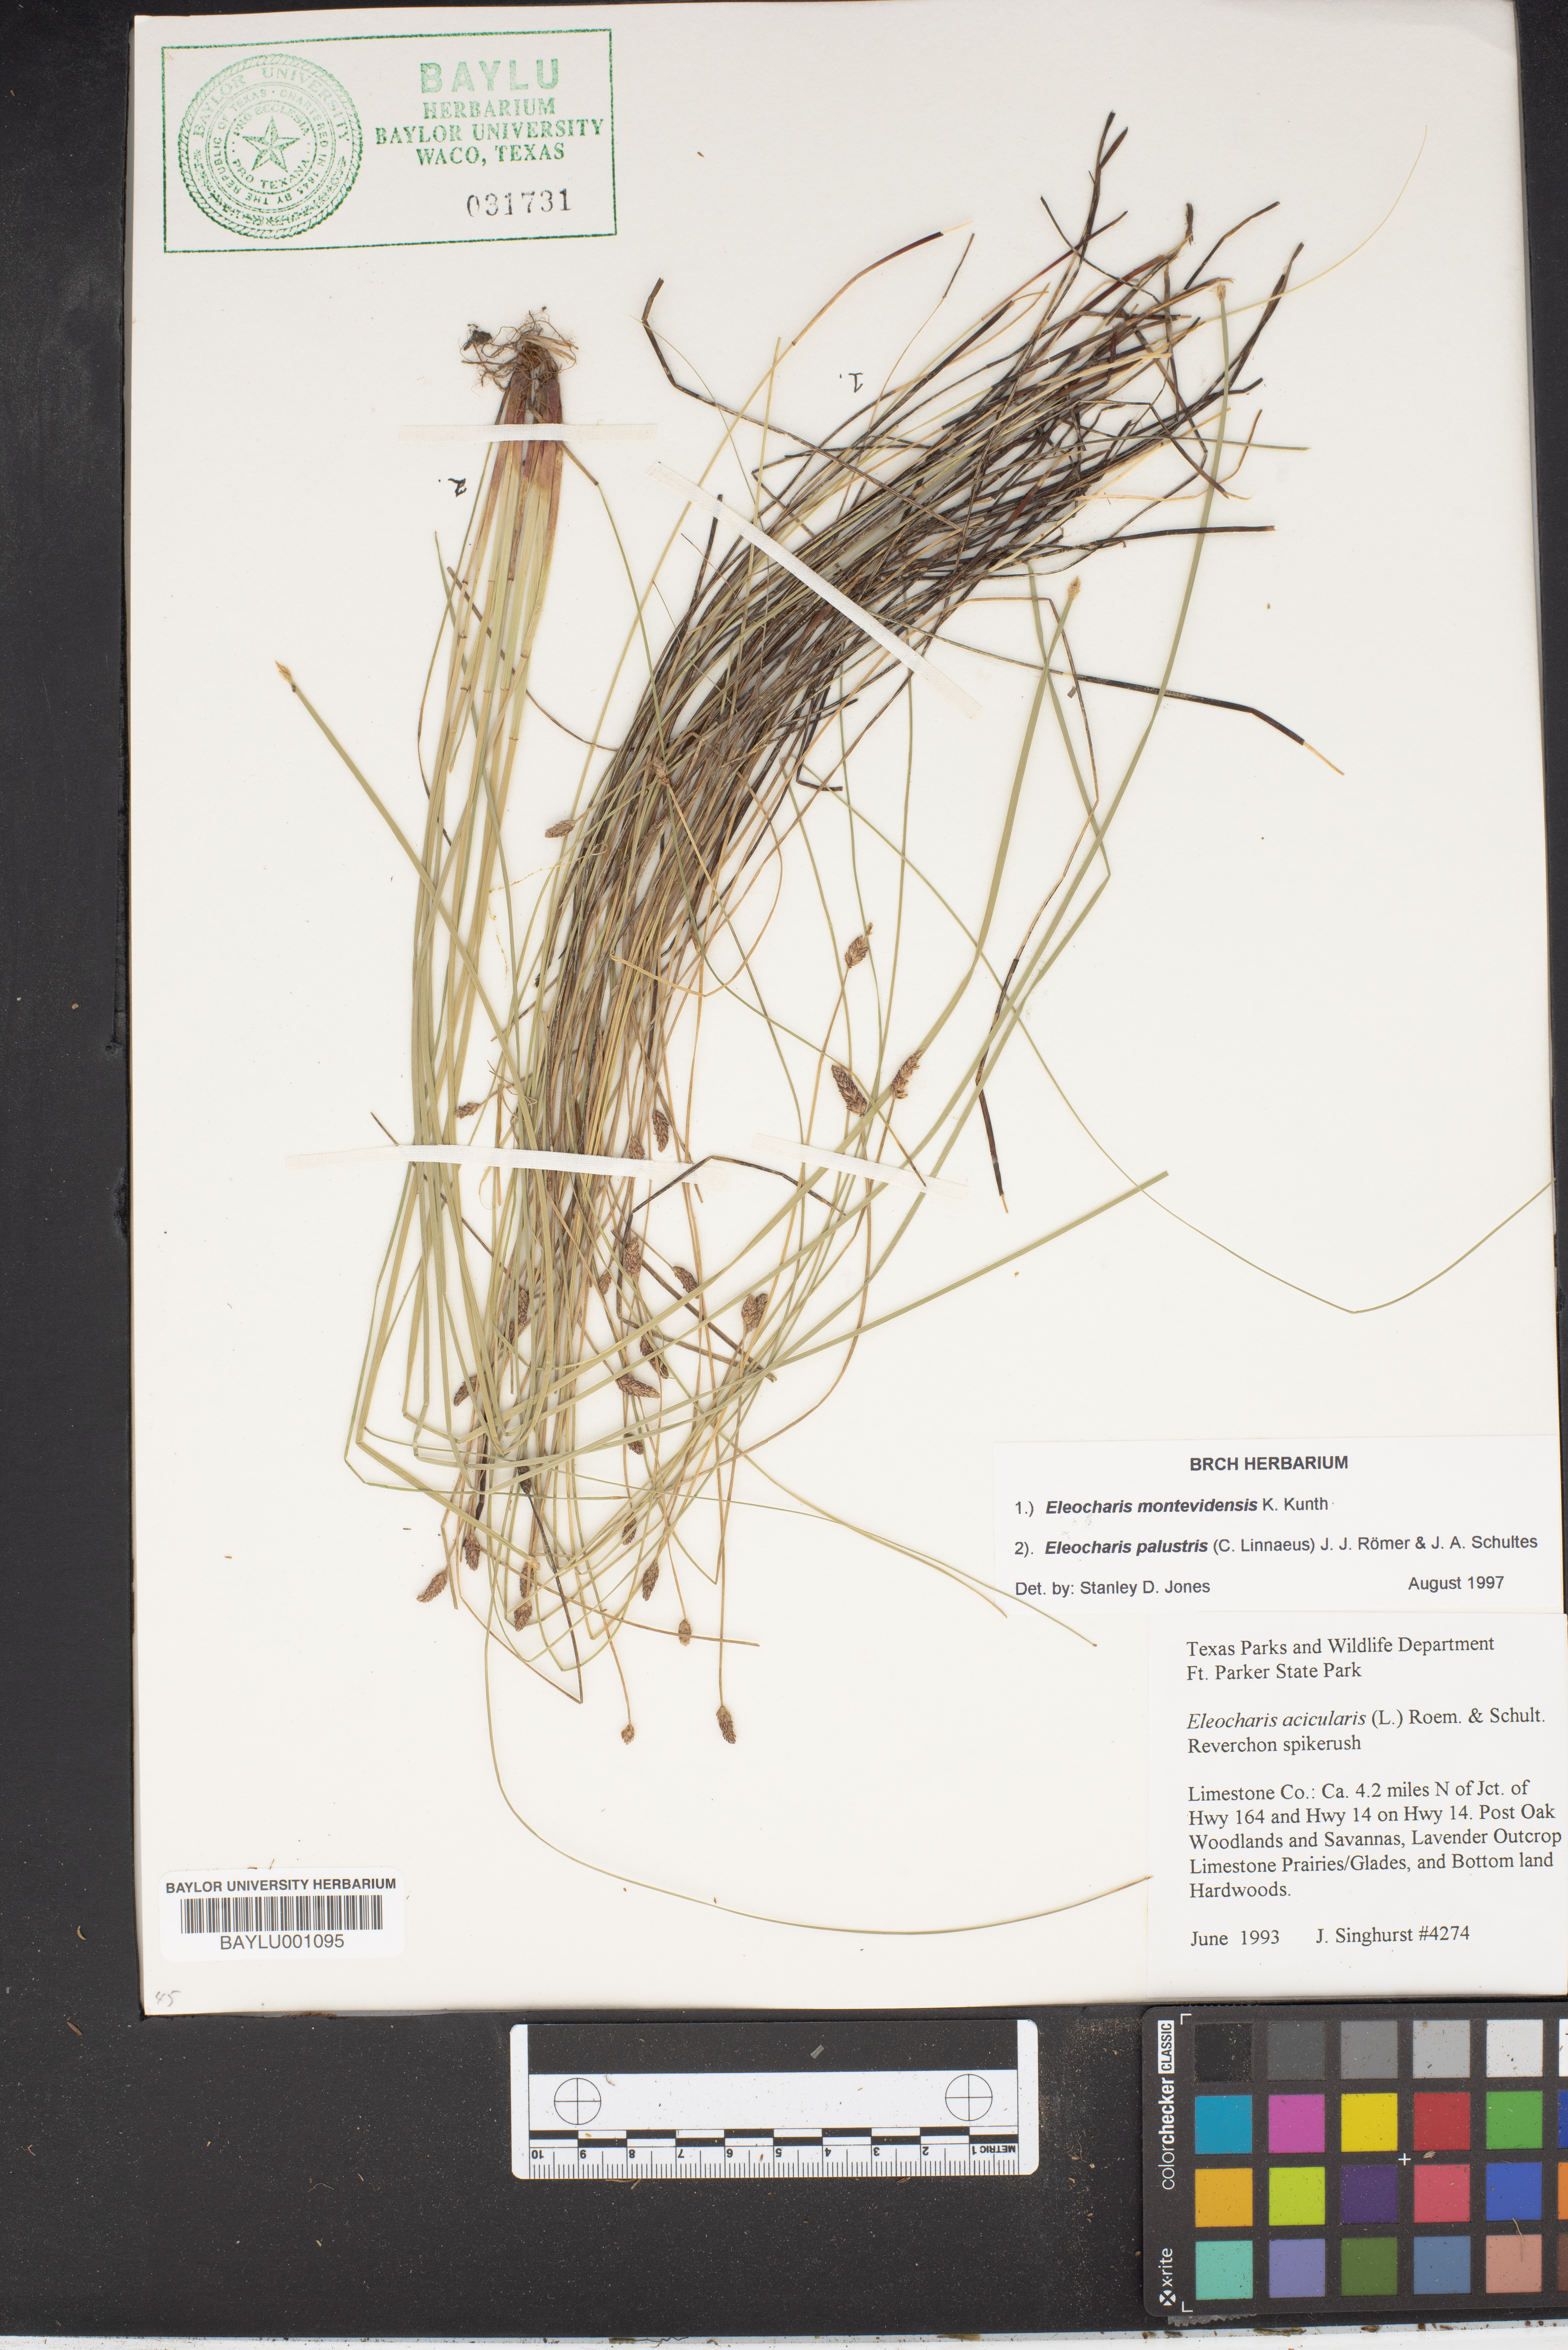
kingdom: Plantae
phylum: Tracheophyta
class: Liliopsida
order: Poales
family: Cyperaceae
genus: Eleocharis
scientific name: Eleocharis palustris
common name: Common spike-rush
